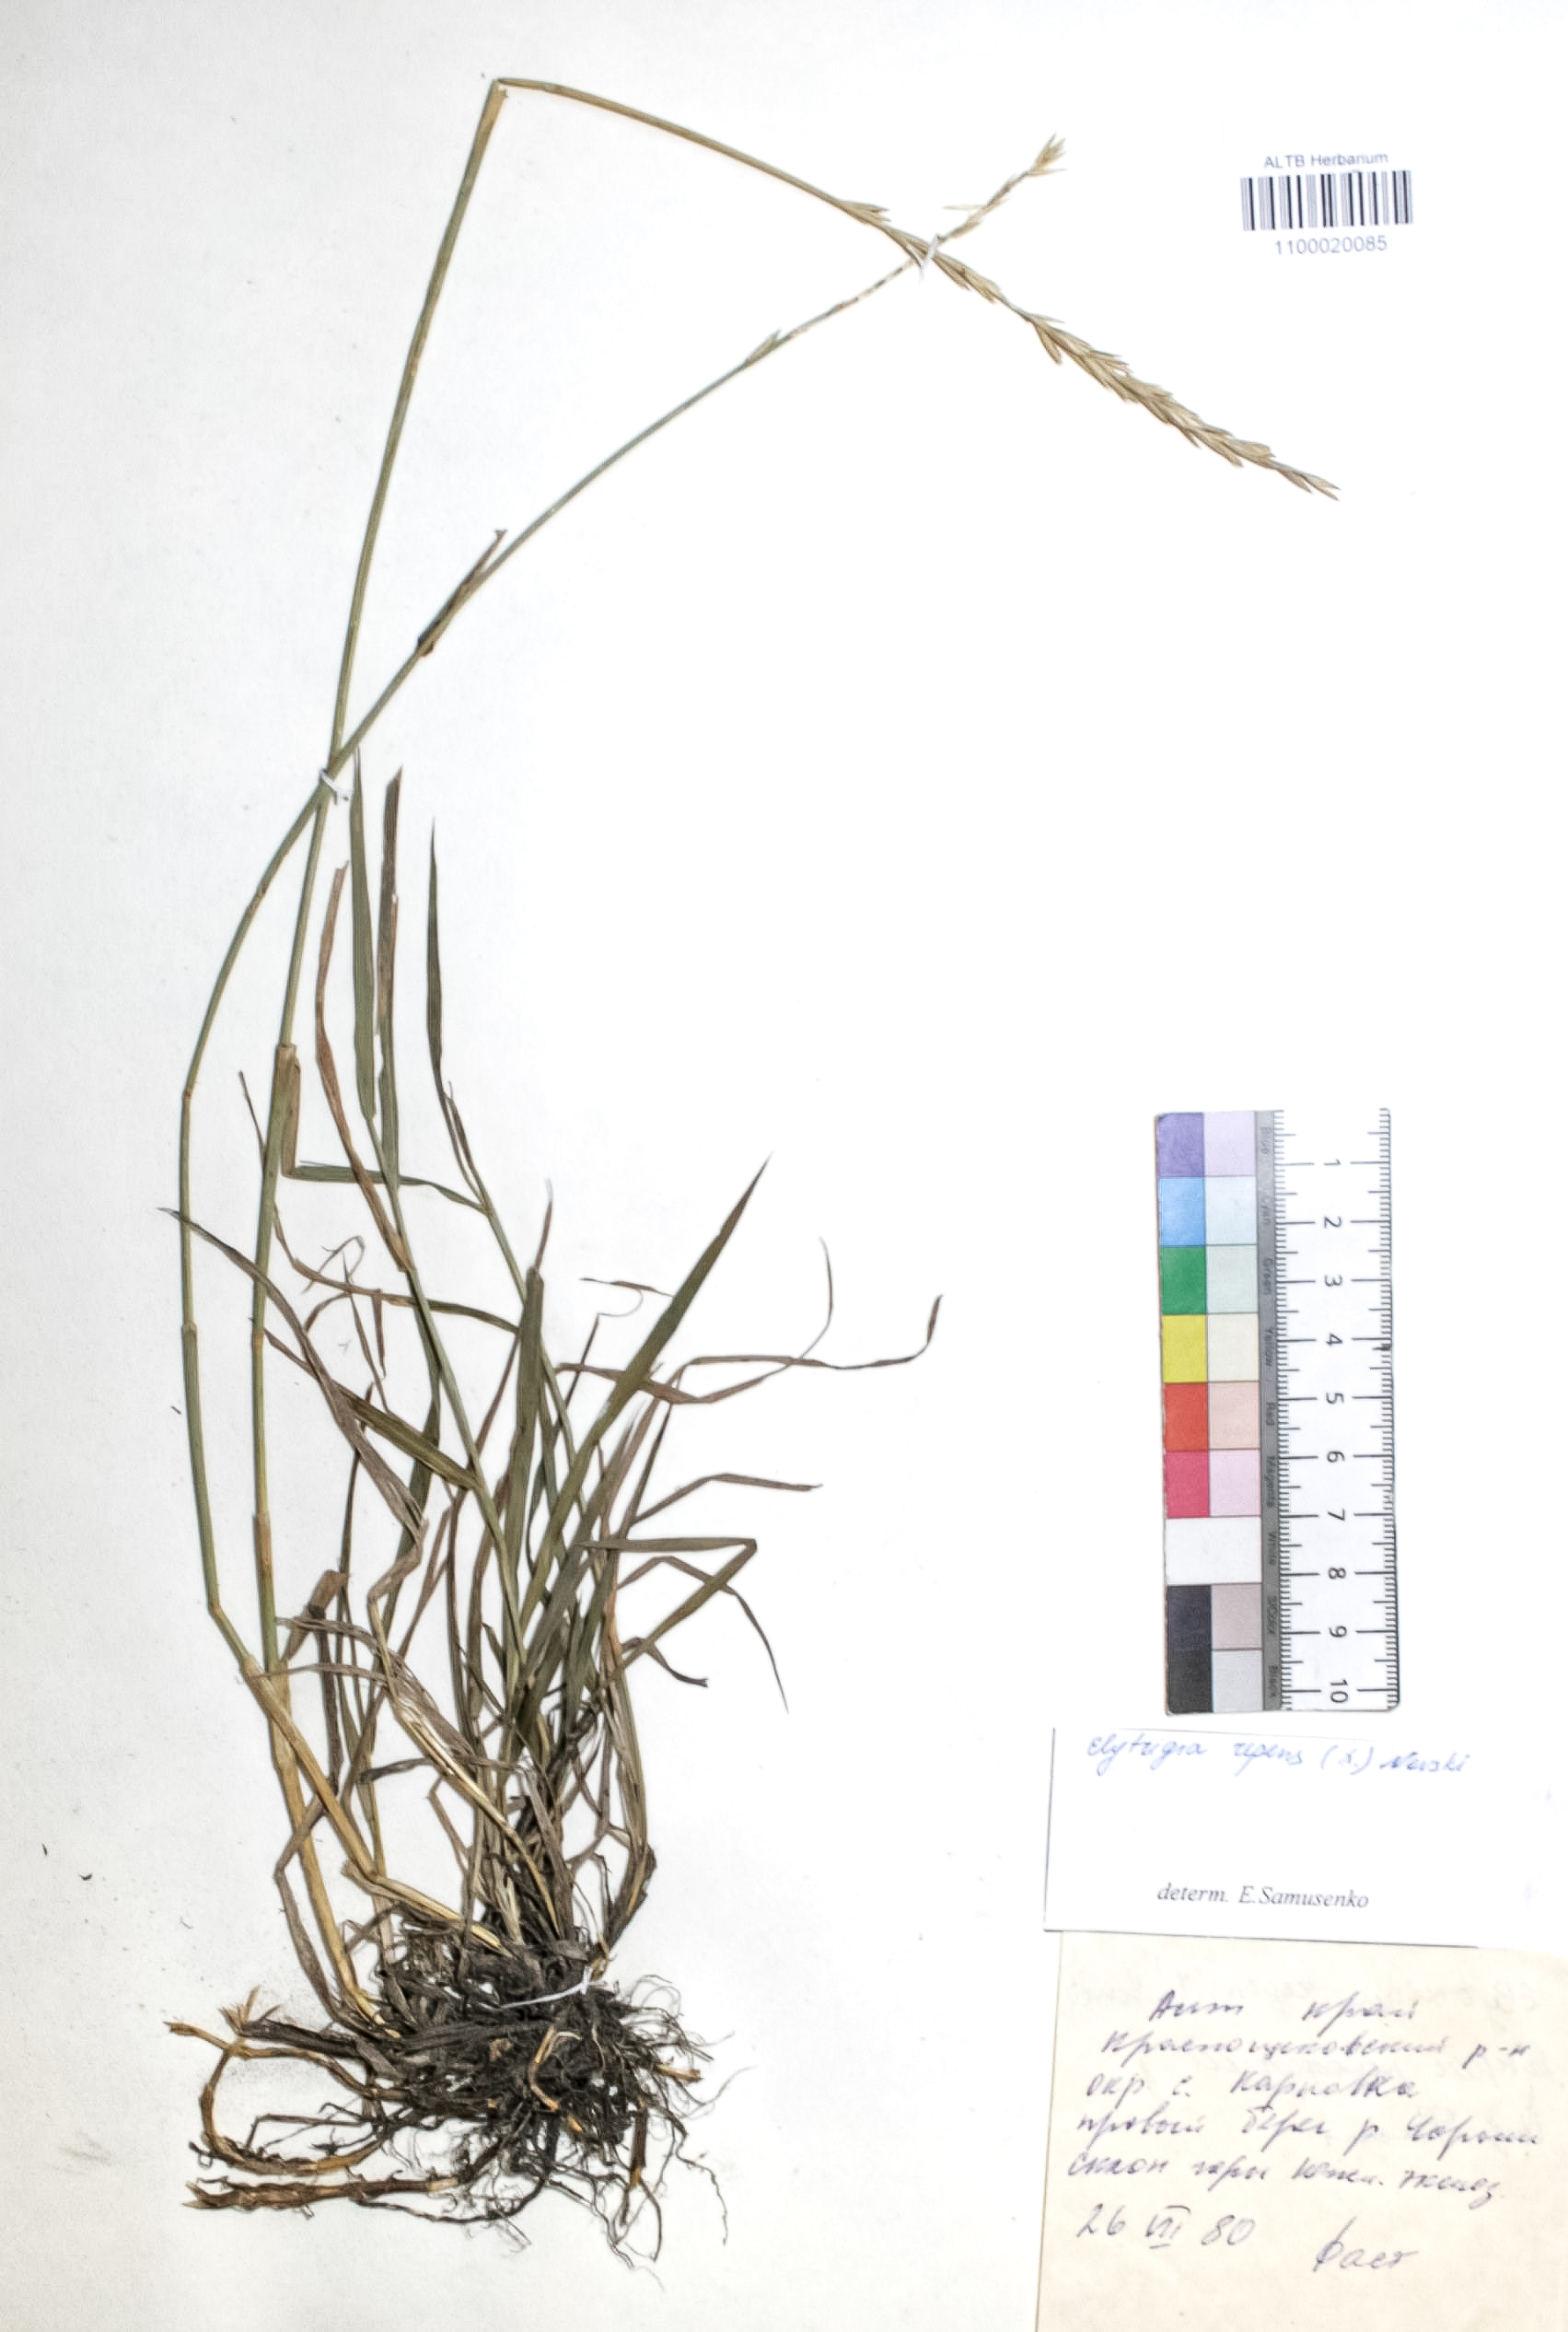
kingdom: Plantae
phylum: Tracheophyta
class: Liliopsida
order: Poales
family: Poaceae
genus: Elymus
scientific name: Elymus repens
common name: Quackgrass
